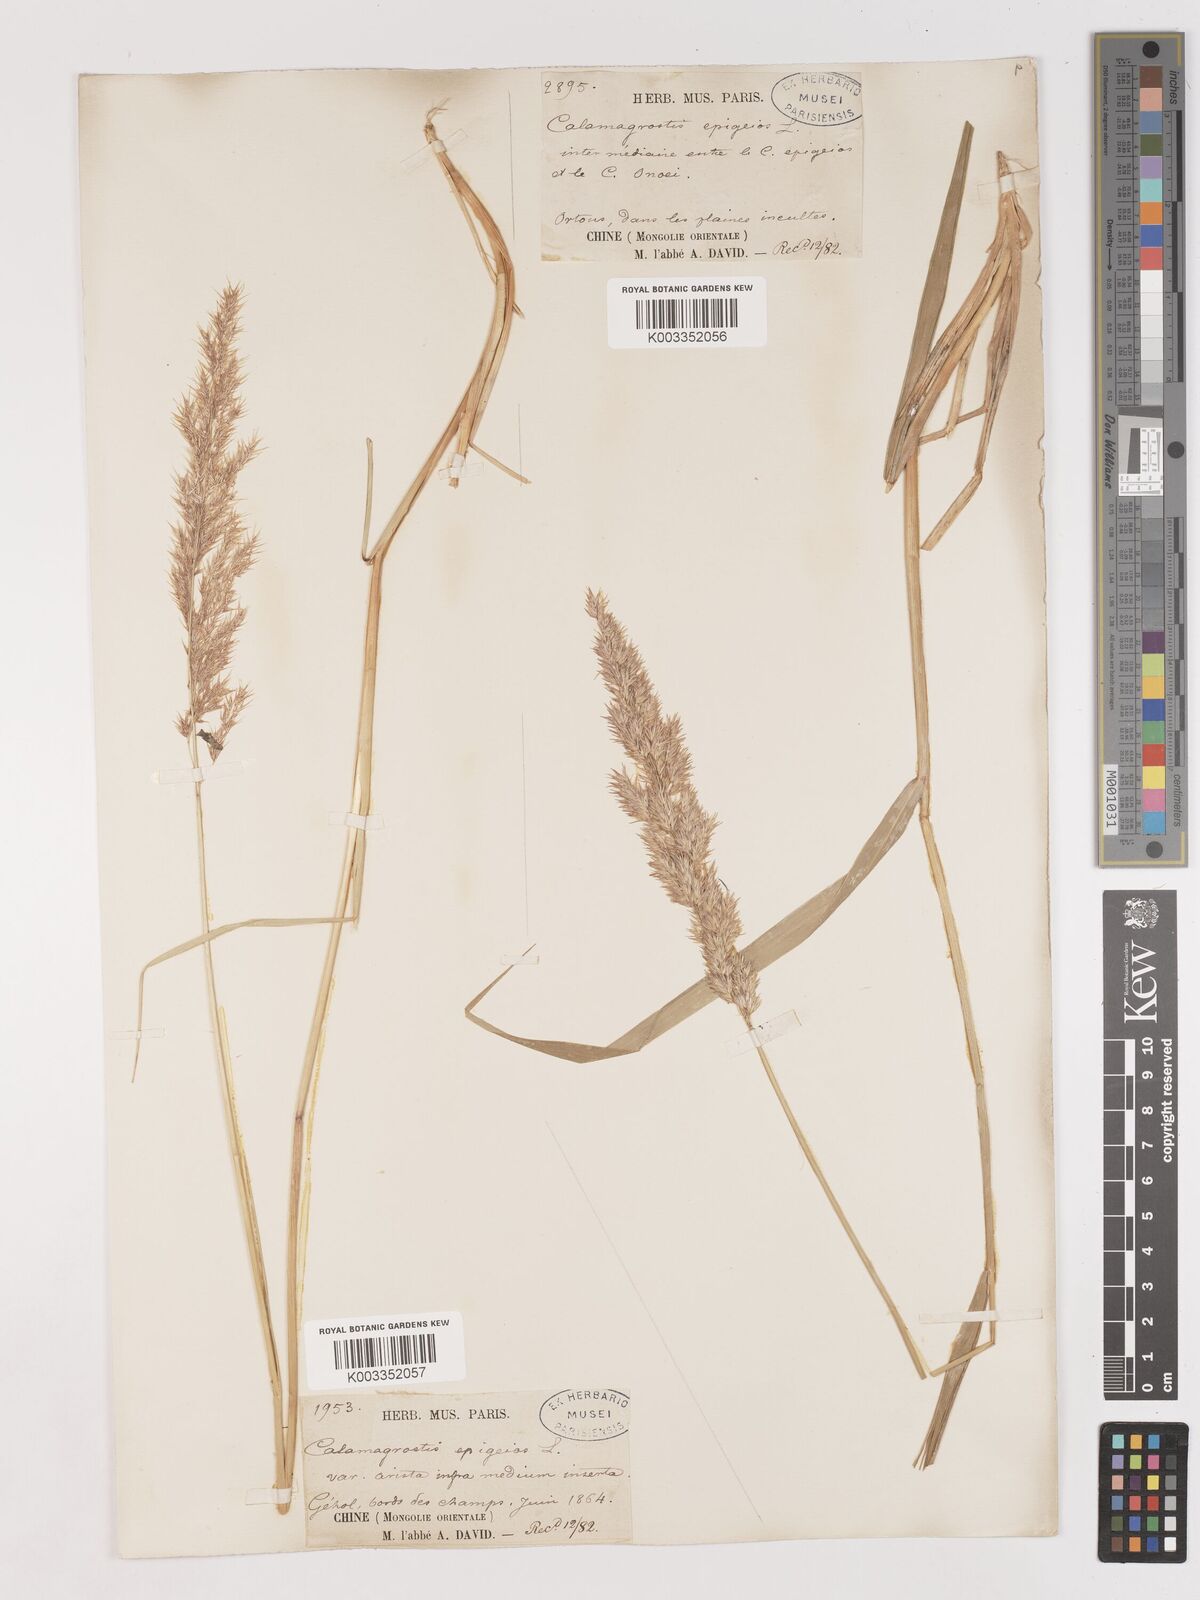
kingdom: Plantae
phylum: Tracheophyta
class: Liliopsida
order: Poales
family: Poaceae
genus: Calamagrostis
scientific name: Calamagrostis epigejos
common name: Wood small-reed
